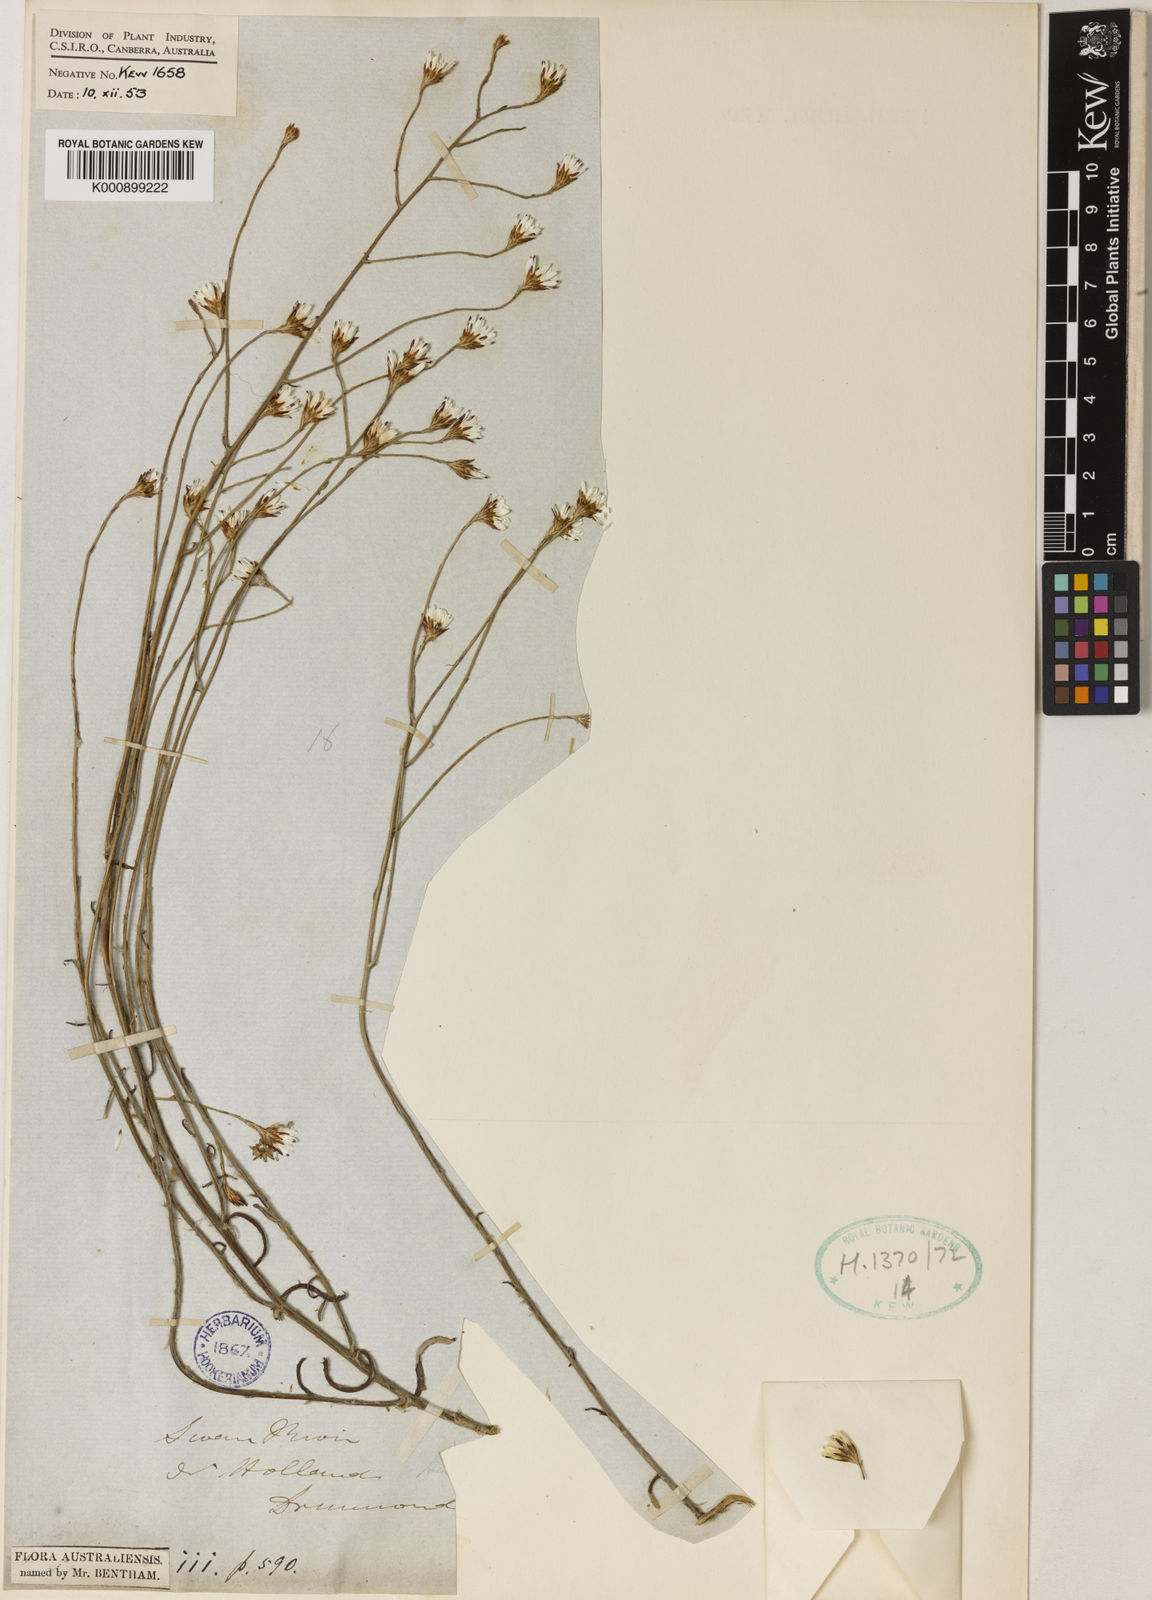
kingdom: Plantae
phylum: Tracheophyta
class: Magnoliopsida
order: Asterales
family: Asteraceae
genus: Pithocarpa
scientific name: Pithocarpa pulchella
